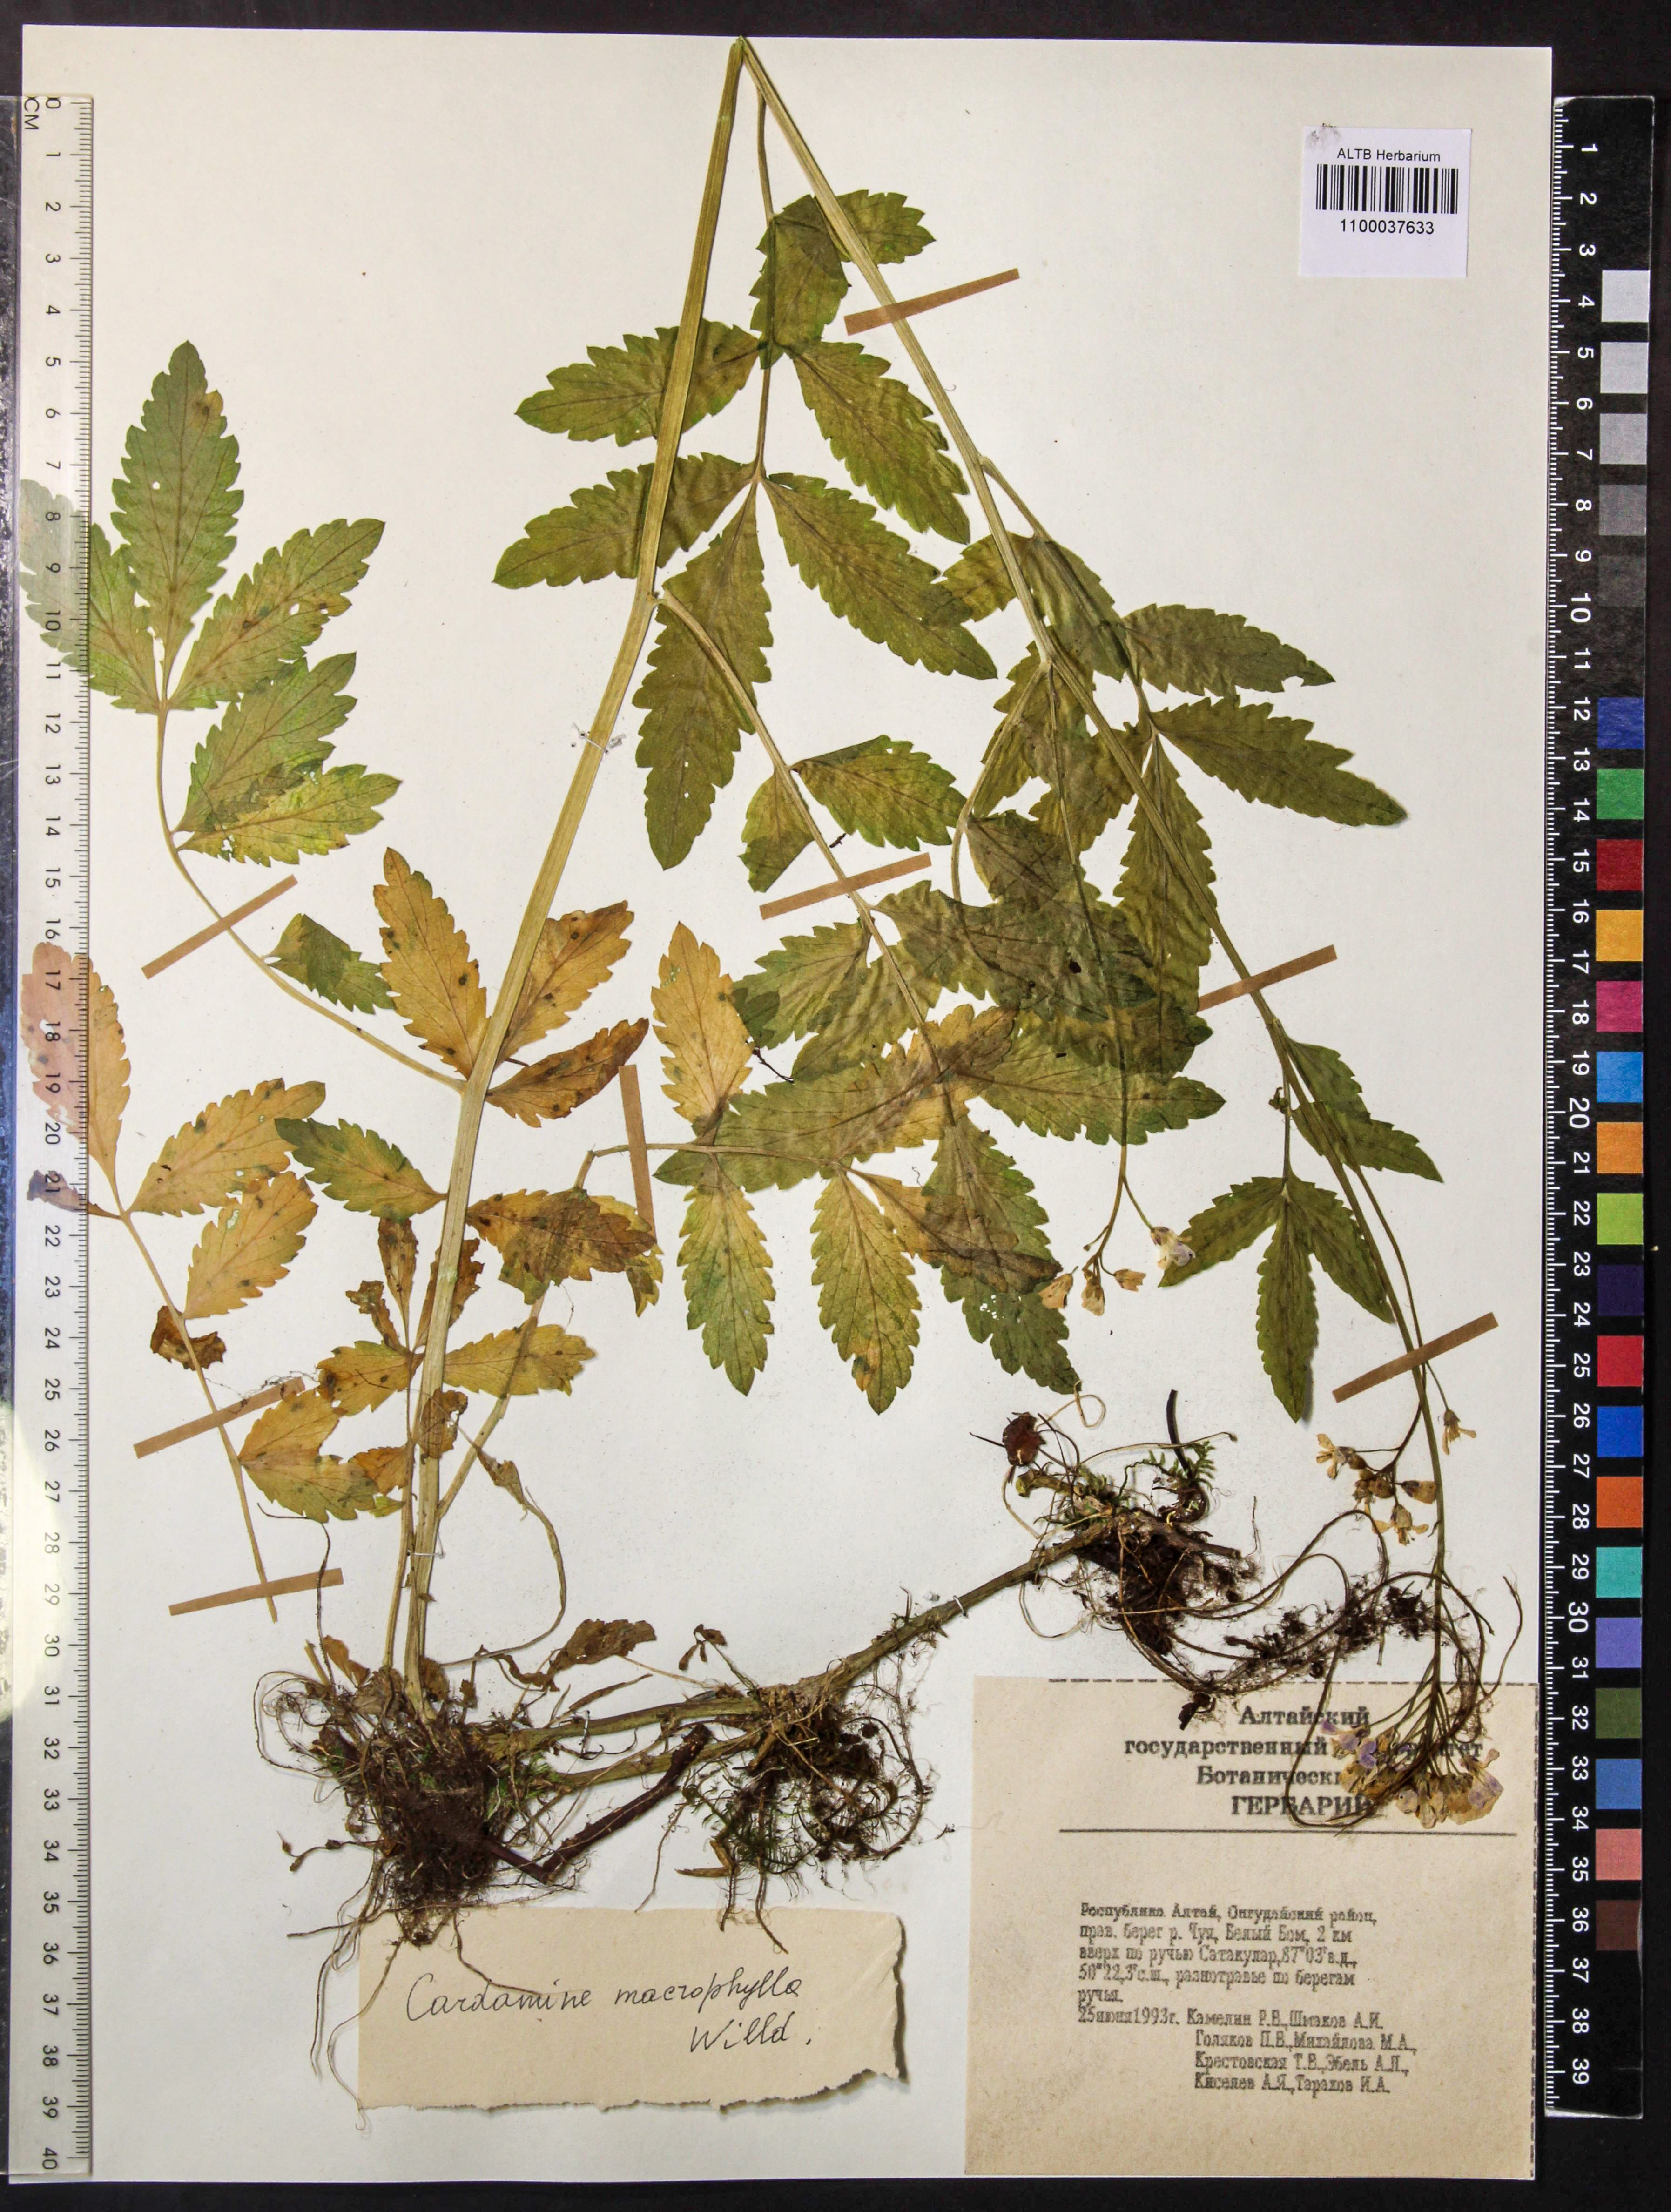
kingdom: Plantae
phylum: Tracheophyta
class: Magnoliopsida
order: Brassicales
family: Brassicaceae
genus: Cardamine
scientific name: Cardamine macrophylla
